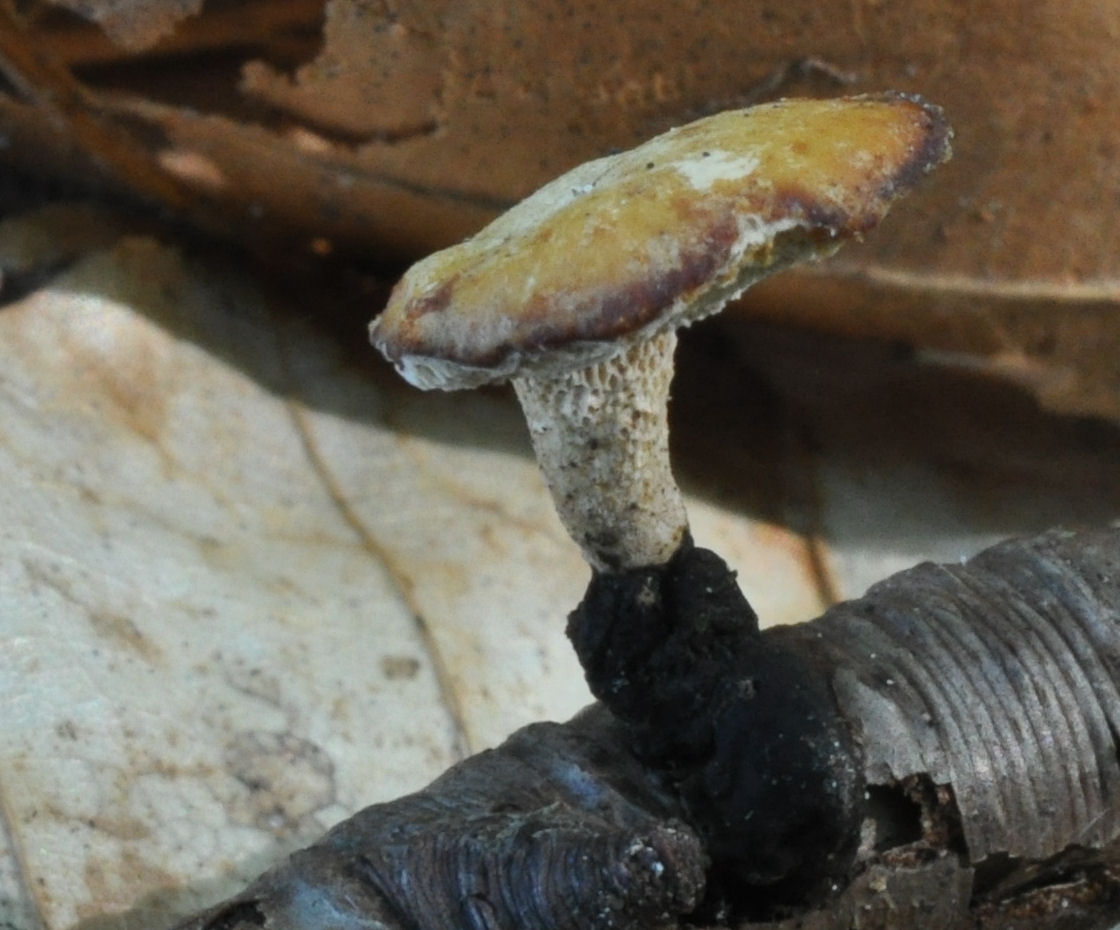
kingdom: Fungi
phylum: Basidiomycota
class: Agaricomycetes
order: Polyporales
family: Polyporaceae
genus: Cerioporus
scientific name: Cerioporus varius
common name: foranderlig stilkporesvamp
